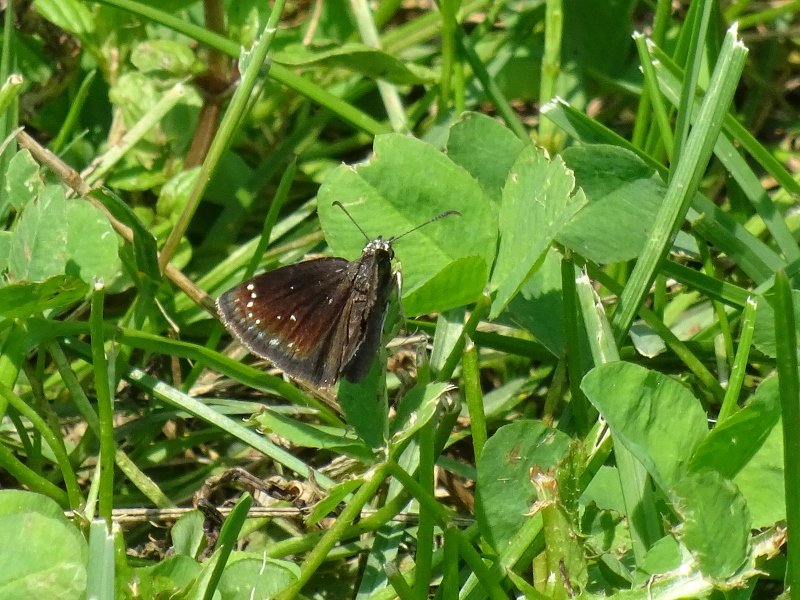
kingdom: Animalia
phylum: Arthropoda
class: Insecta
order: Lepidoptera
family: Hesperiidae
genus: Pholisora
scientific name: Pholisora catullus
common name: Common Sootywing
